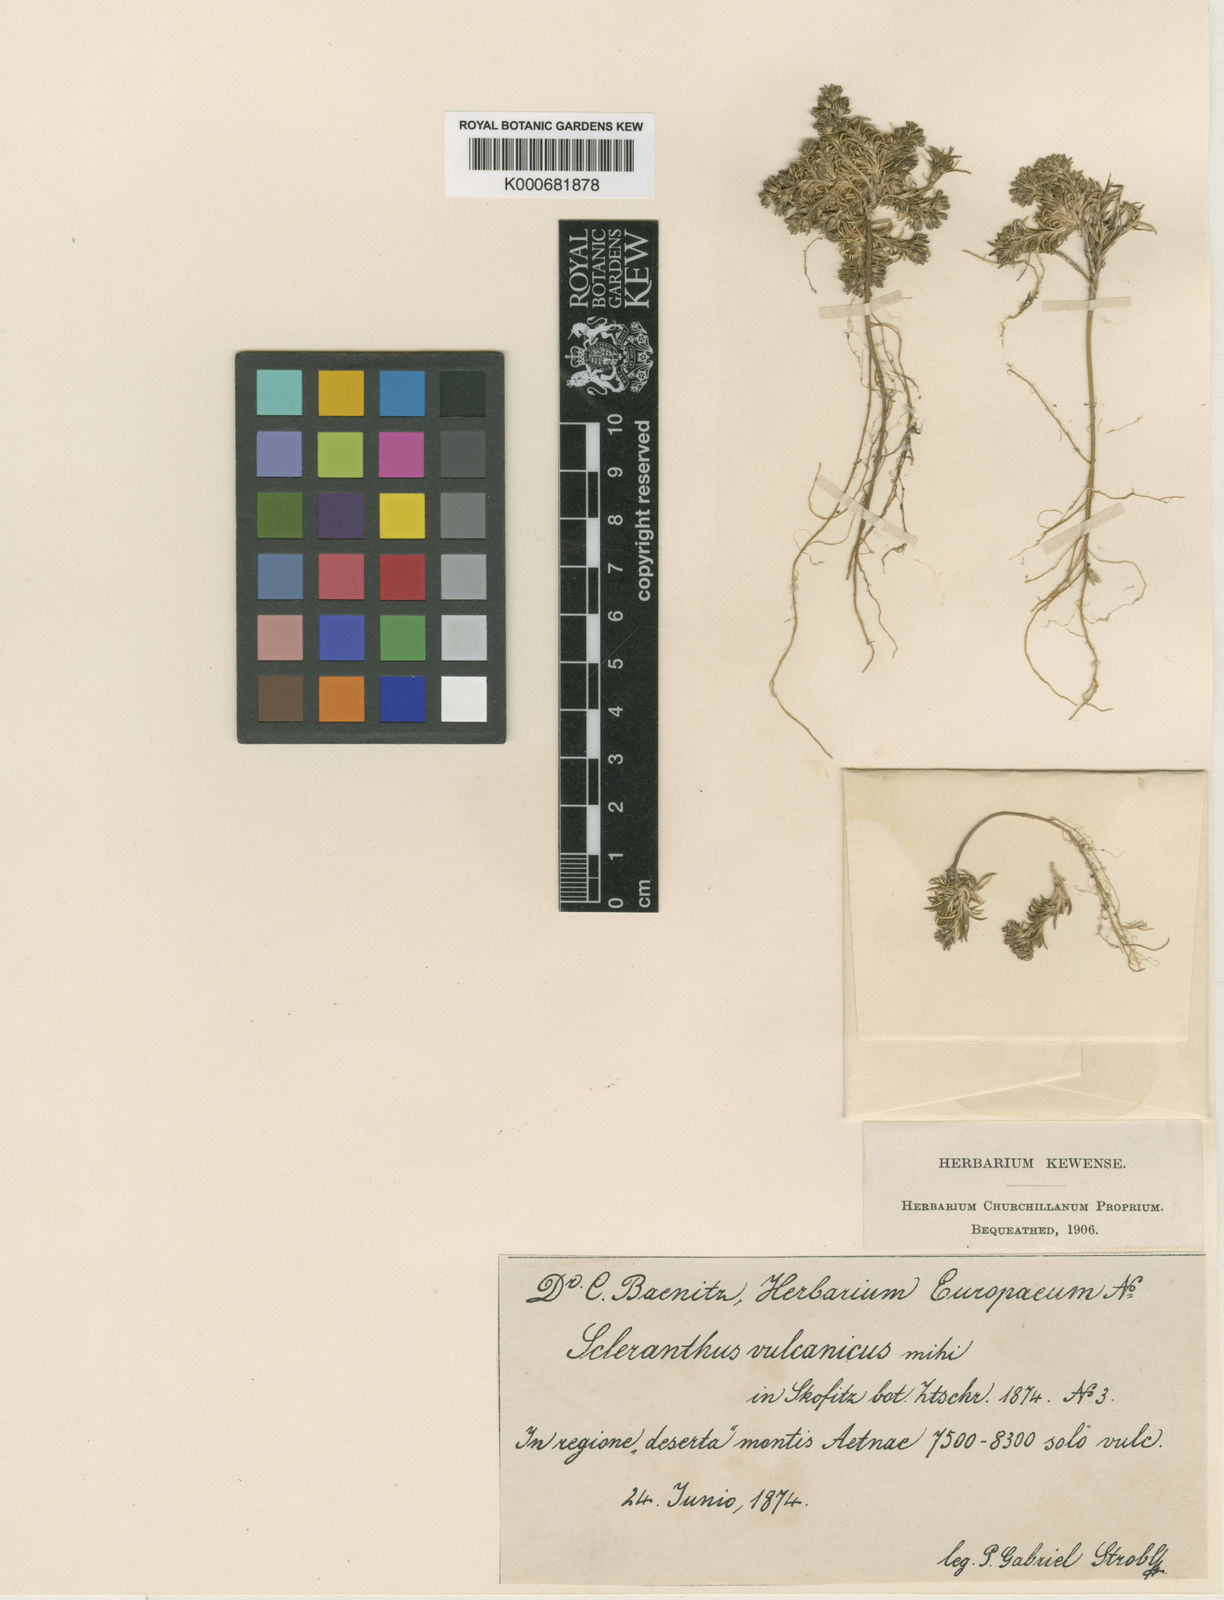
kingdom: Plantae
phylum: Tracheophyta
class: Magnoliopsida
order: Caryophyllales
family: Caryophyllaceae
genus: Scleranthus
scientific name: Scleranthus perennis
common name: Perennial knawel
